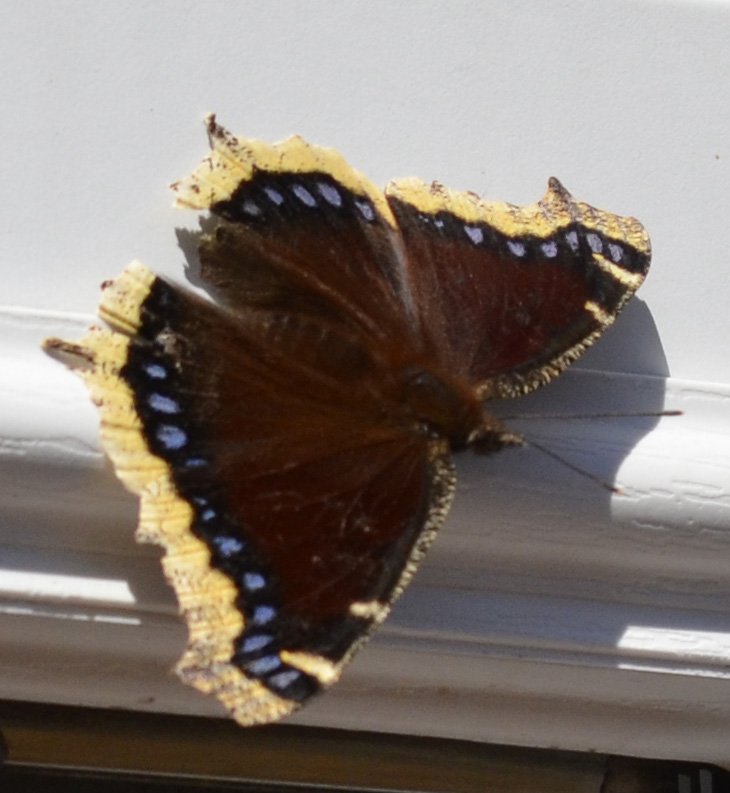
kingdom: Animalia
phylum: Arthropoda
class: Insecta
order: Lepidoptera
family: Nymphalidae
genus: Nymphalis
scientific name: Nymphalis antiopa
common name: Mourning Cloak
